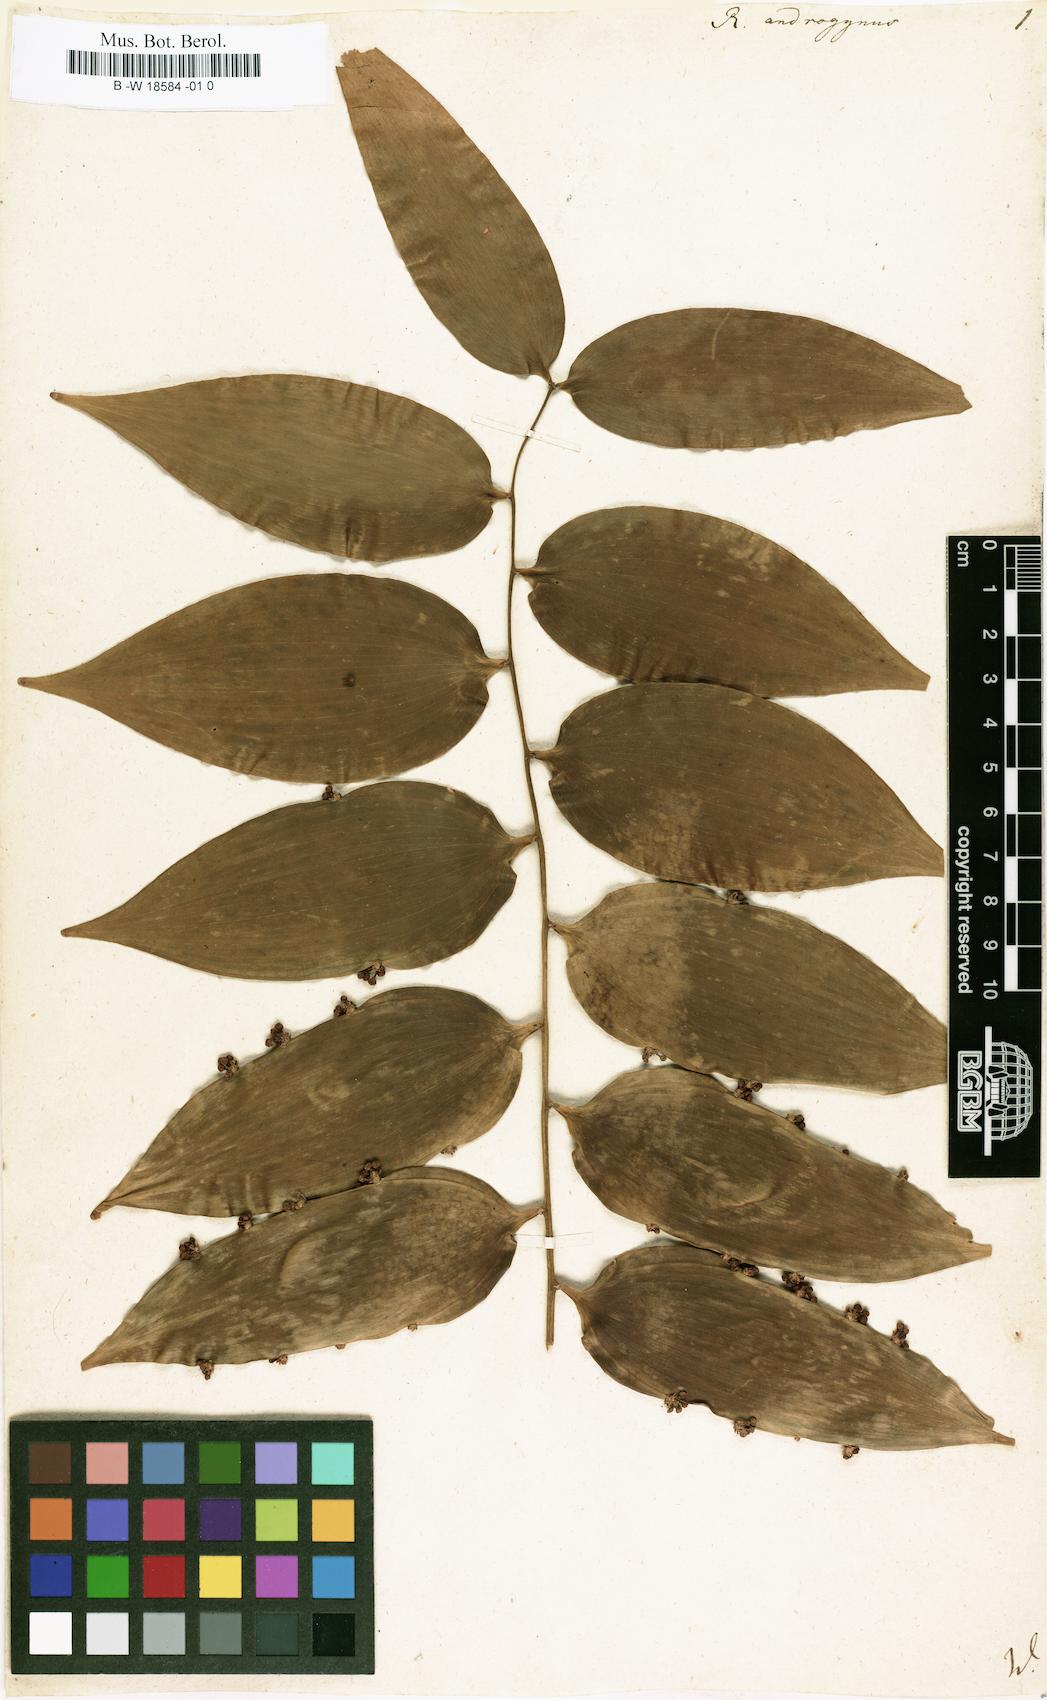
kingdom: Plantae
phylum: Tracheophyta
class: Liliopsida
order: Asparagales
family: Asparagaceae
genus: Semele
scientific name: Semele androgyna
